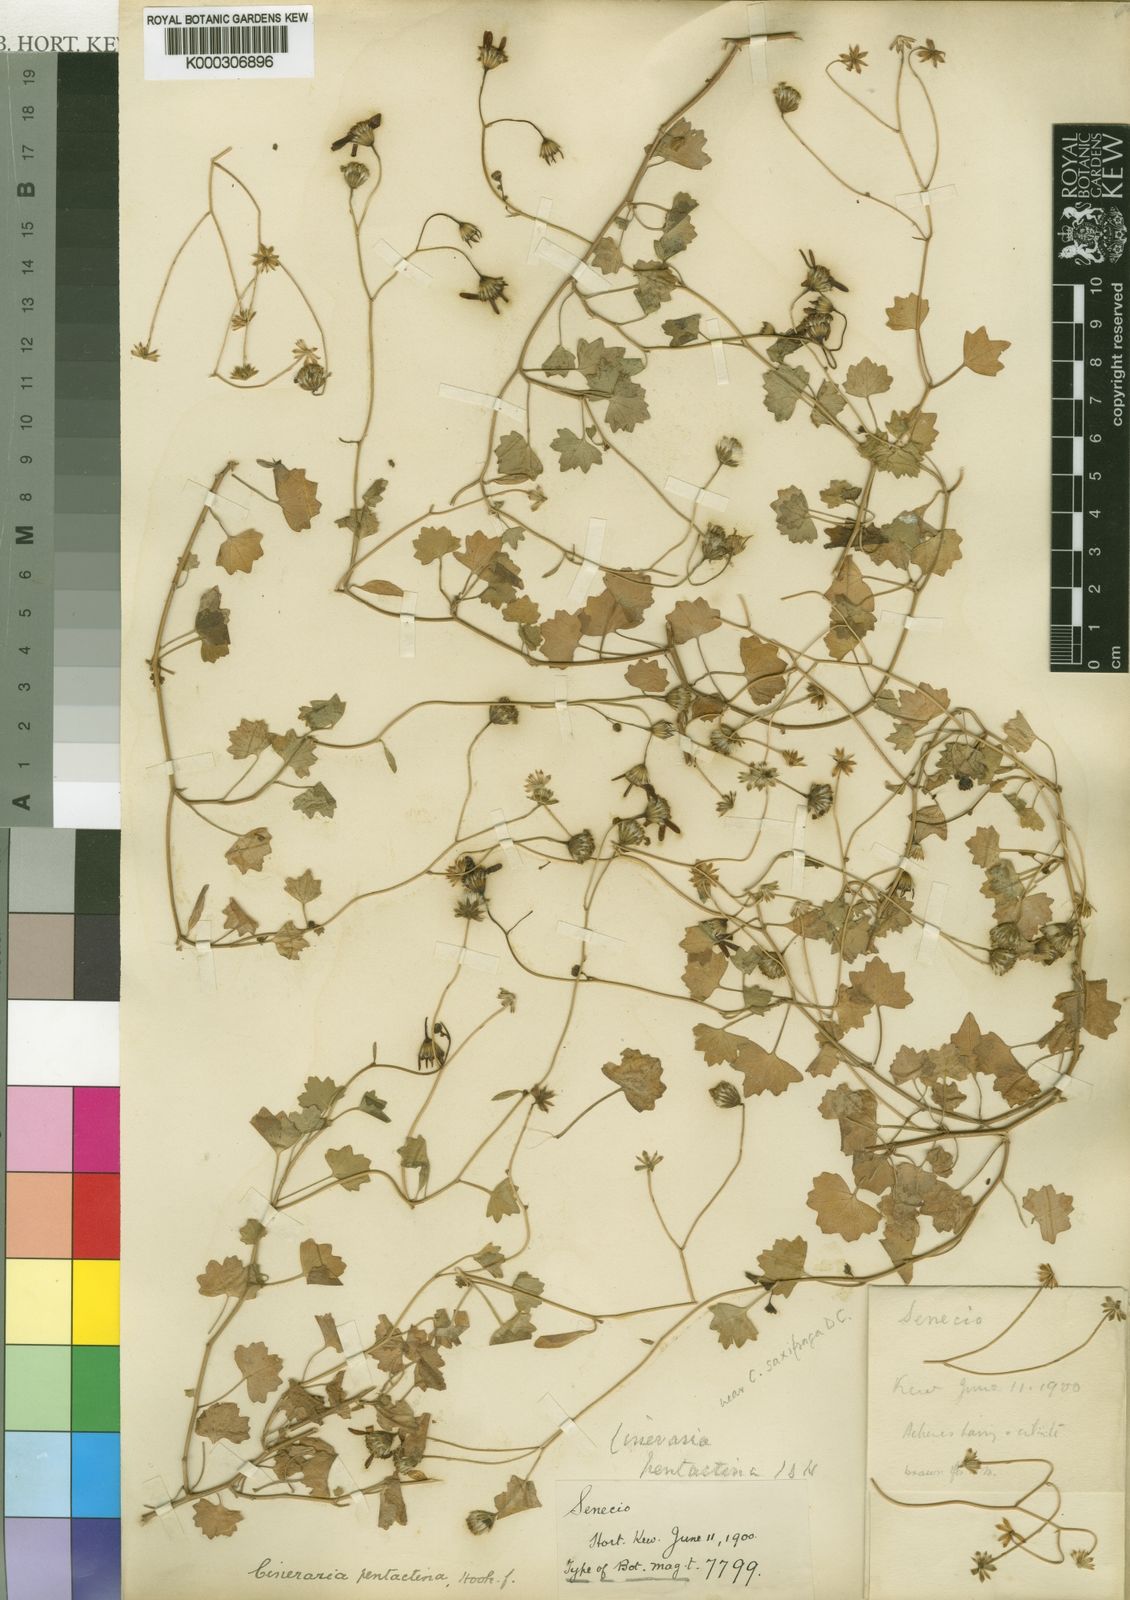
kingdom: Plantae
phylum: Tracheophyta
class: Magnoliopsida
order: Asterales
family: Asteraceae
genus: Cineraria
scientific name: Cineraria pentactina
